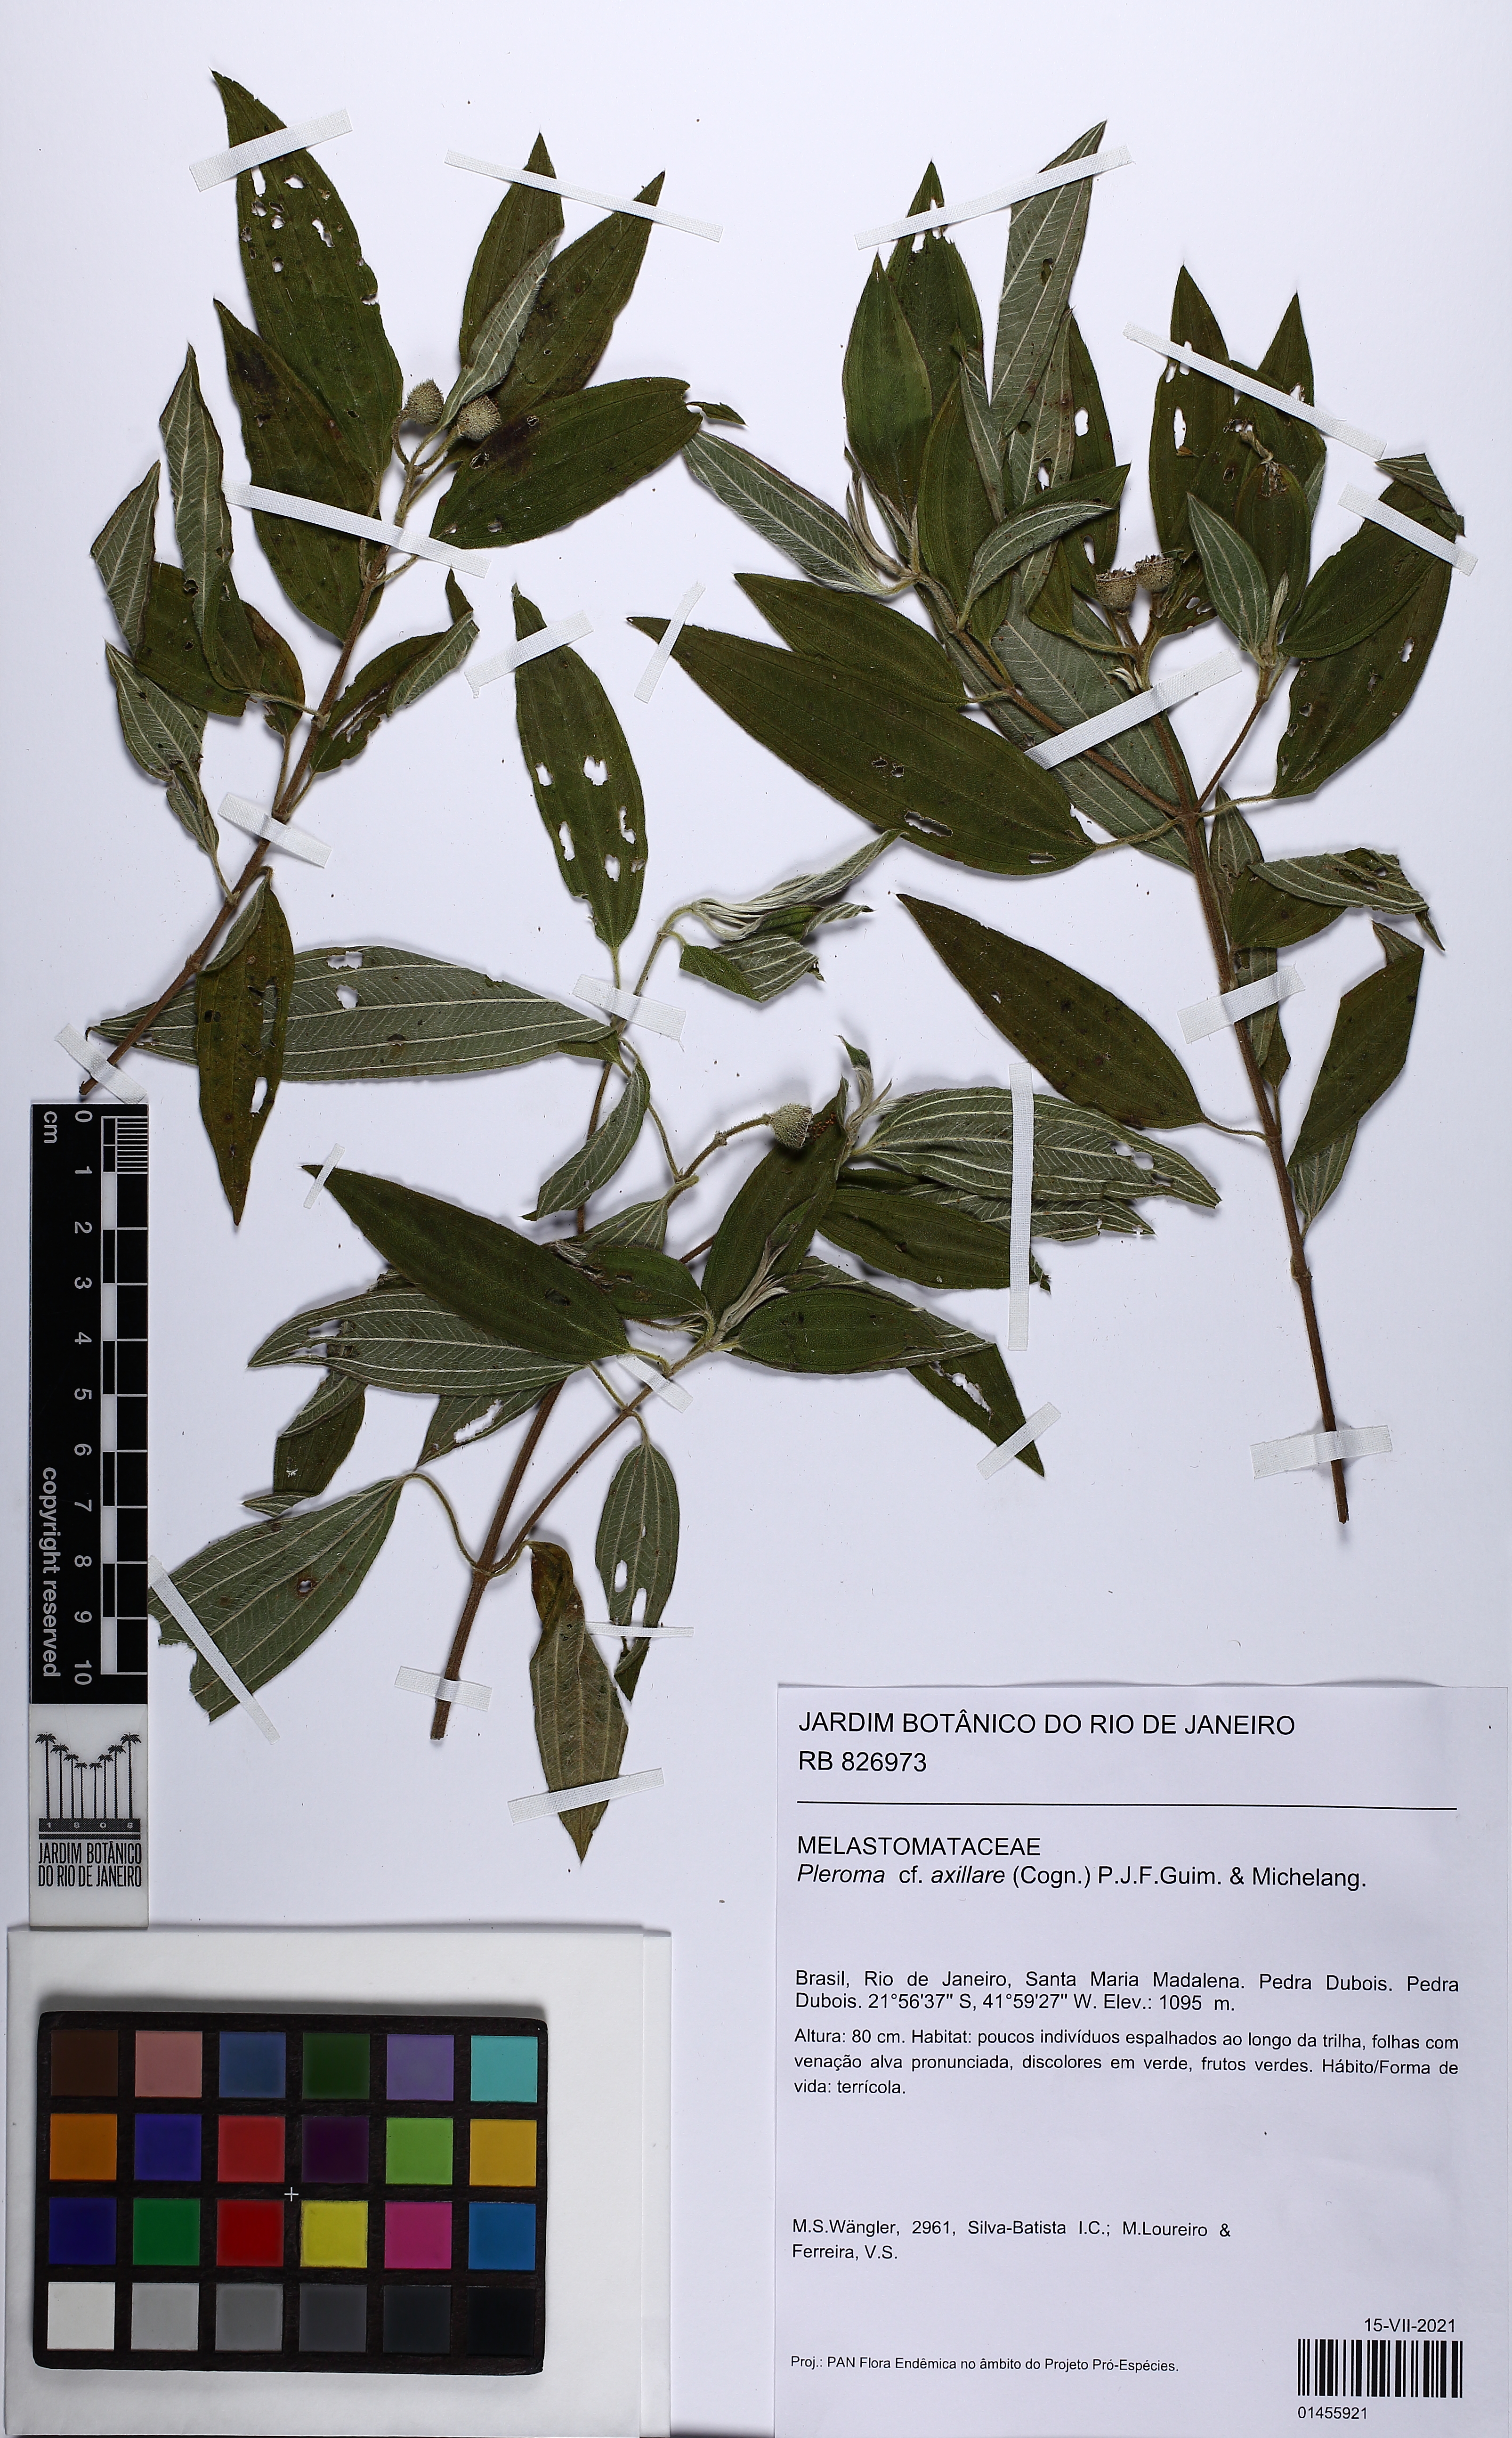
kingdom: Plantae
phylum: Tracheophyta
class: Magnoliopsida
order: Myrtales
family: Melastomataceae
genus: Pleroma
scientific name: Pleroma axillare
